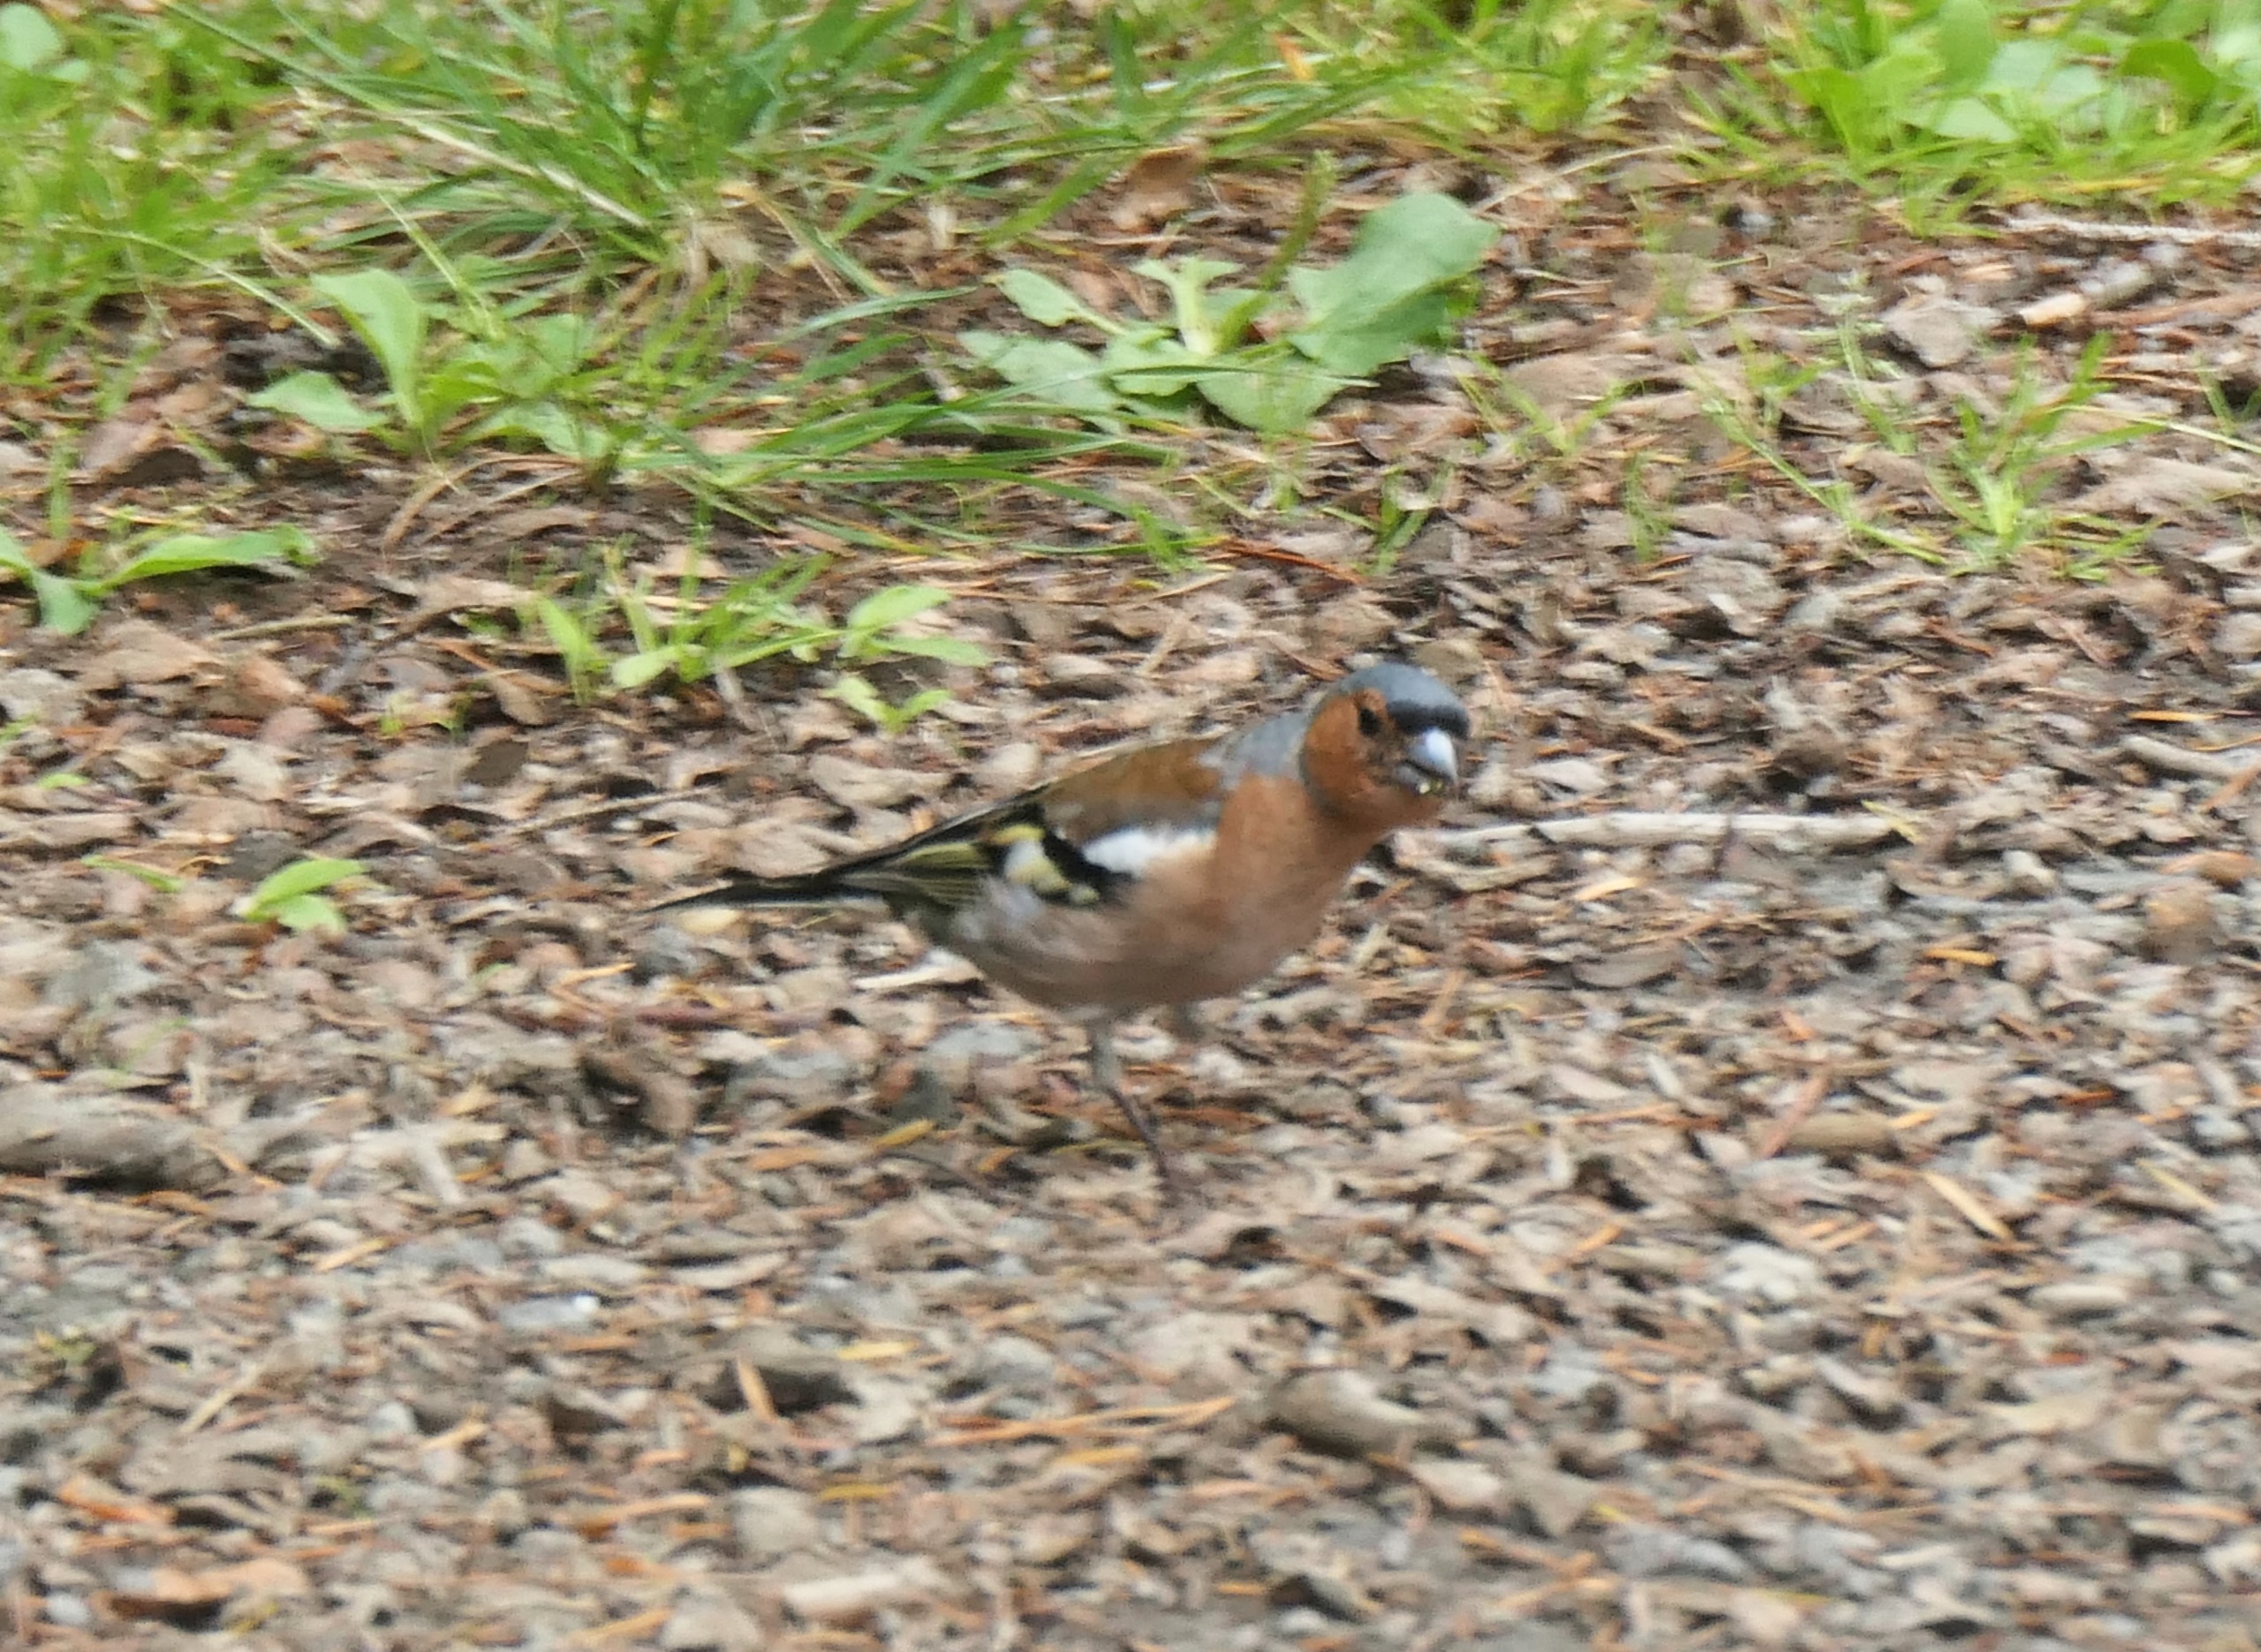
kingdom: Animalia
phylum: Chordata
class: Aves
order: Passeriformes
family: Fringillidae
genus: Fringilla
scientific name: Fringilla coelebs
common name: Bogfinke
